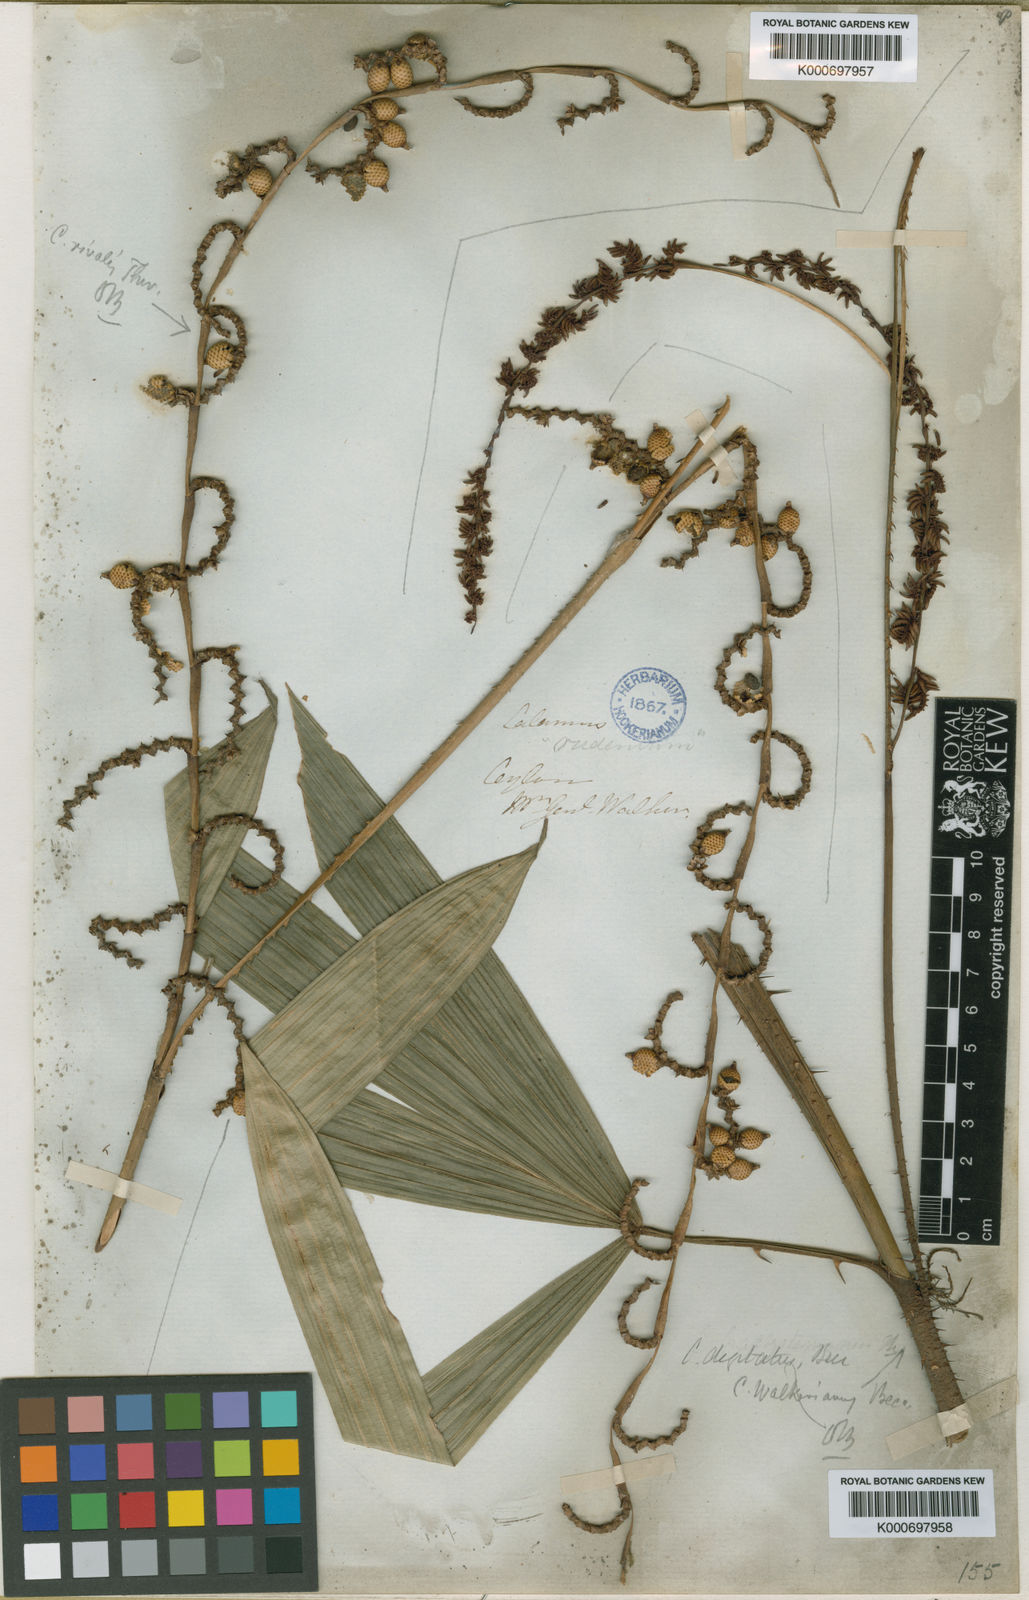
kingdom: Plantae
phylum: Tracheophyta
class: Liliopsida
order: Arecales
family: Arecaceae
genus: Calamus
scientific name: Calamus digitatus
